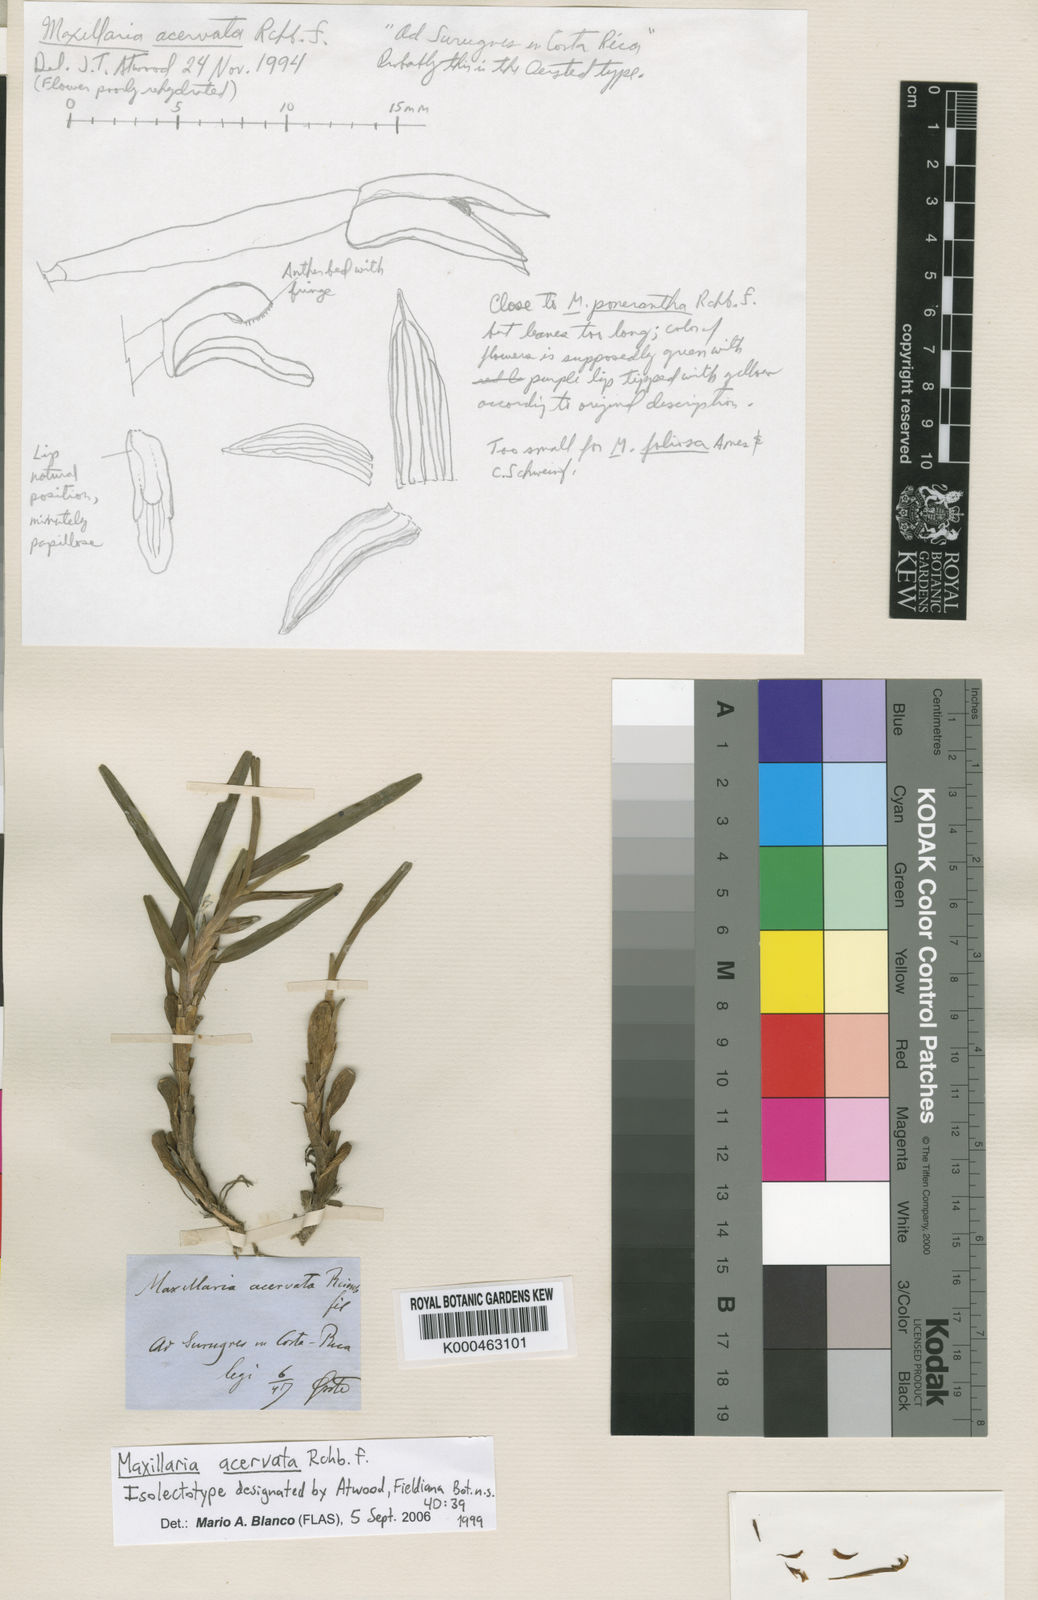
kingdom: Plantae
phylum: Tracheophyta
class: Liliopsida
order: Asparagales
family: Orchidaceae
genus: Maxillaria
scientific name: Maxillaria acervata
